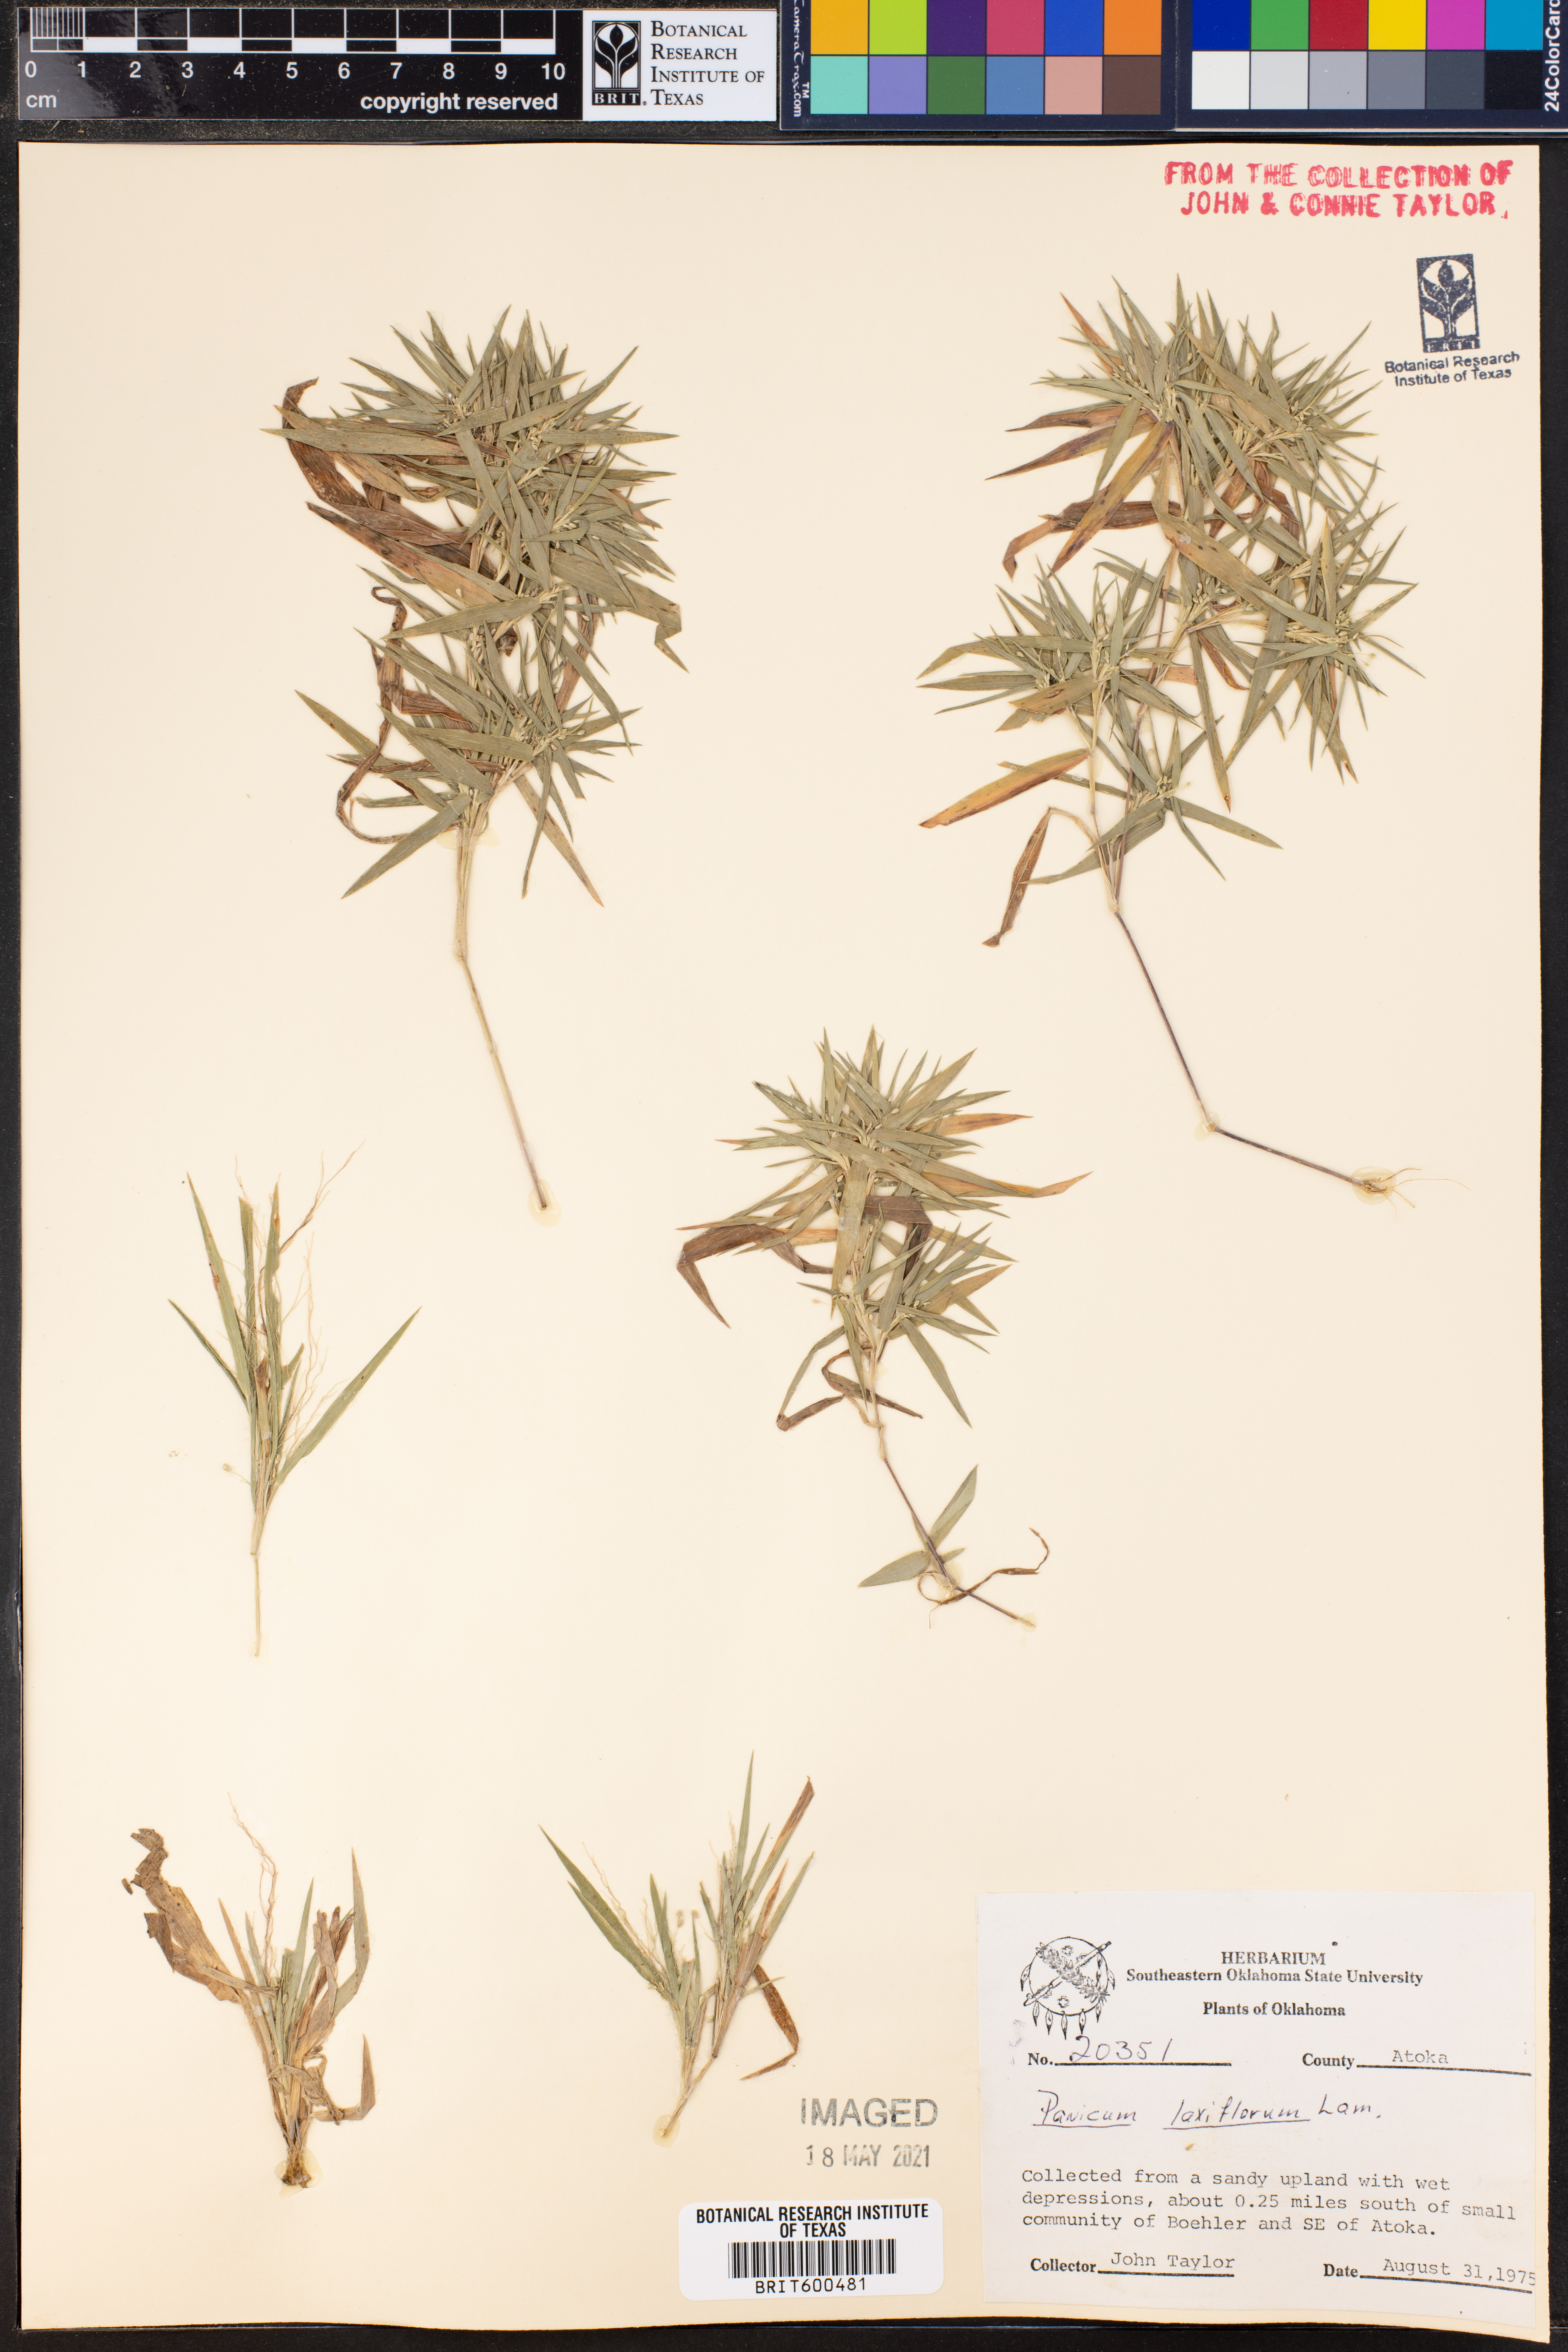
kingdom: Plantae
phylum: Tracheophyta
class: Liliopsida
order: Poales
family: Poaceae
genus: Dichanthelium
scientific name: Dichanthelium laxiflorum
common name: Soft-tuft panic grass
